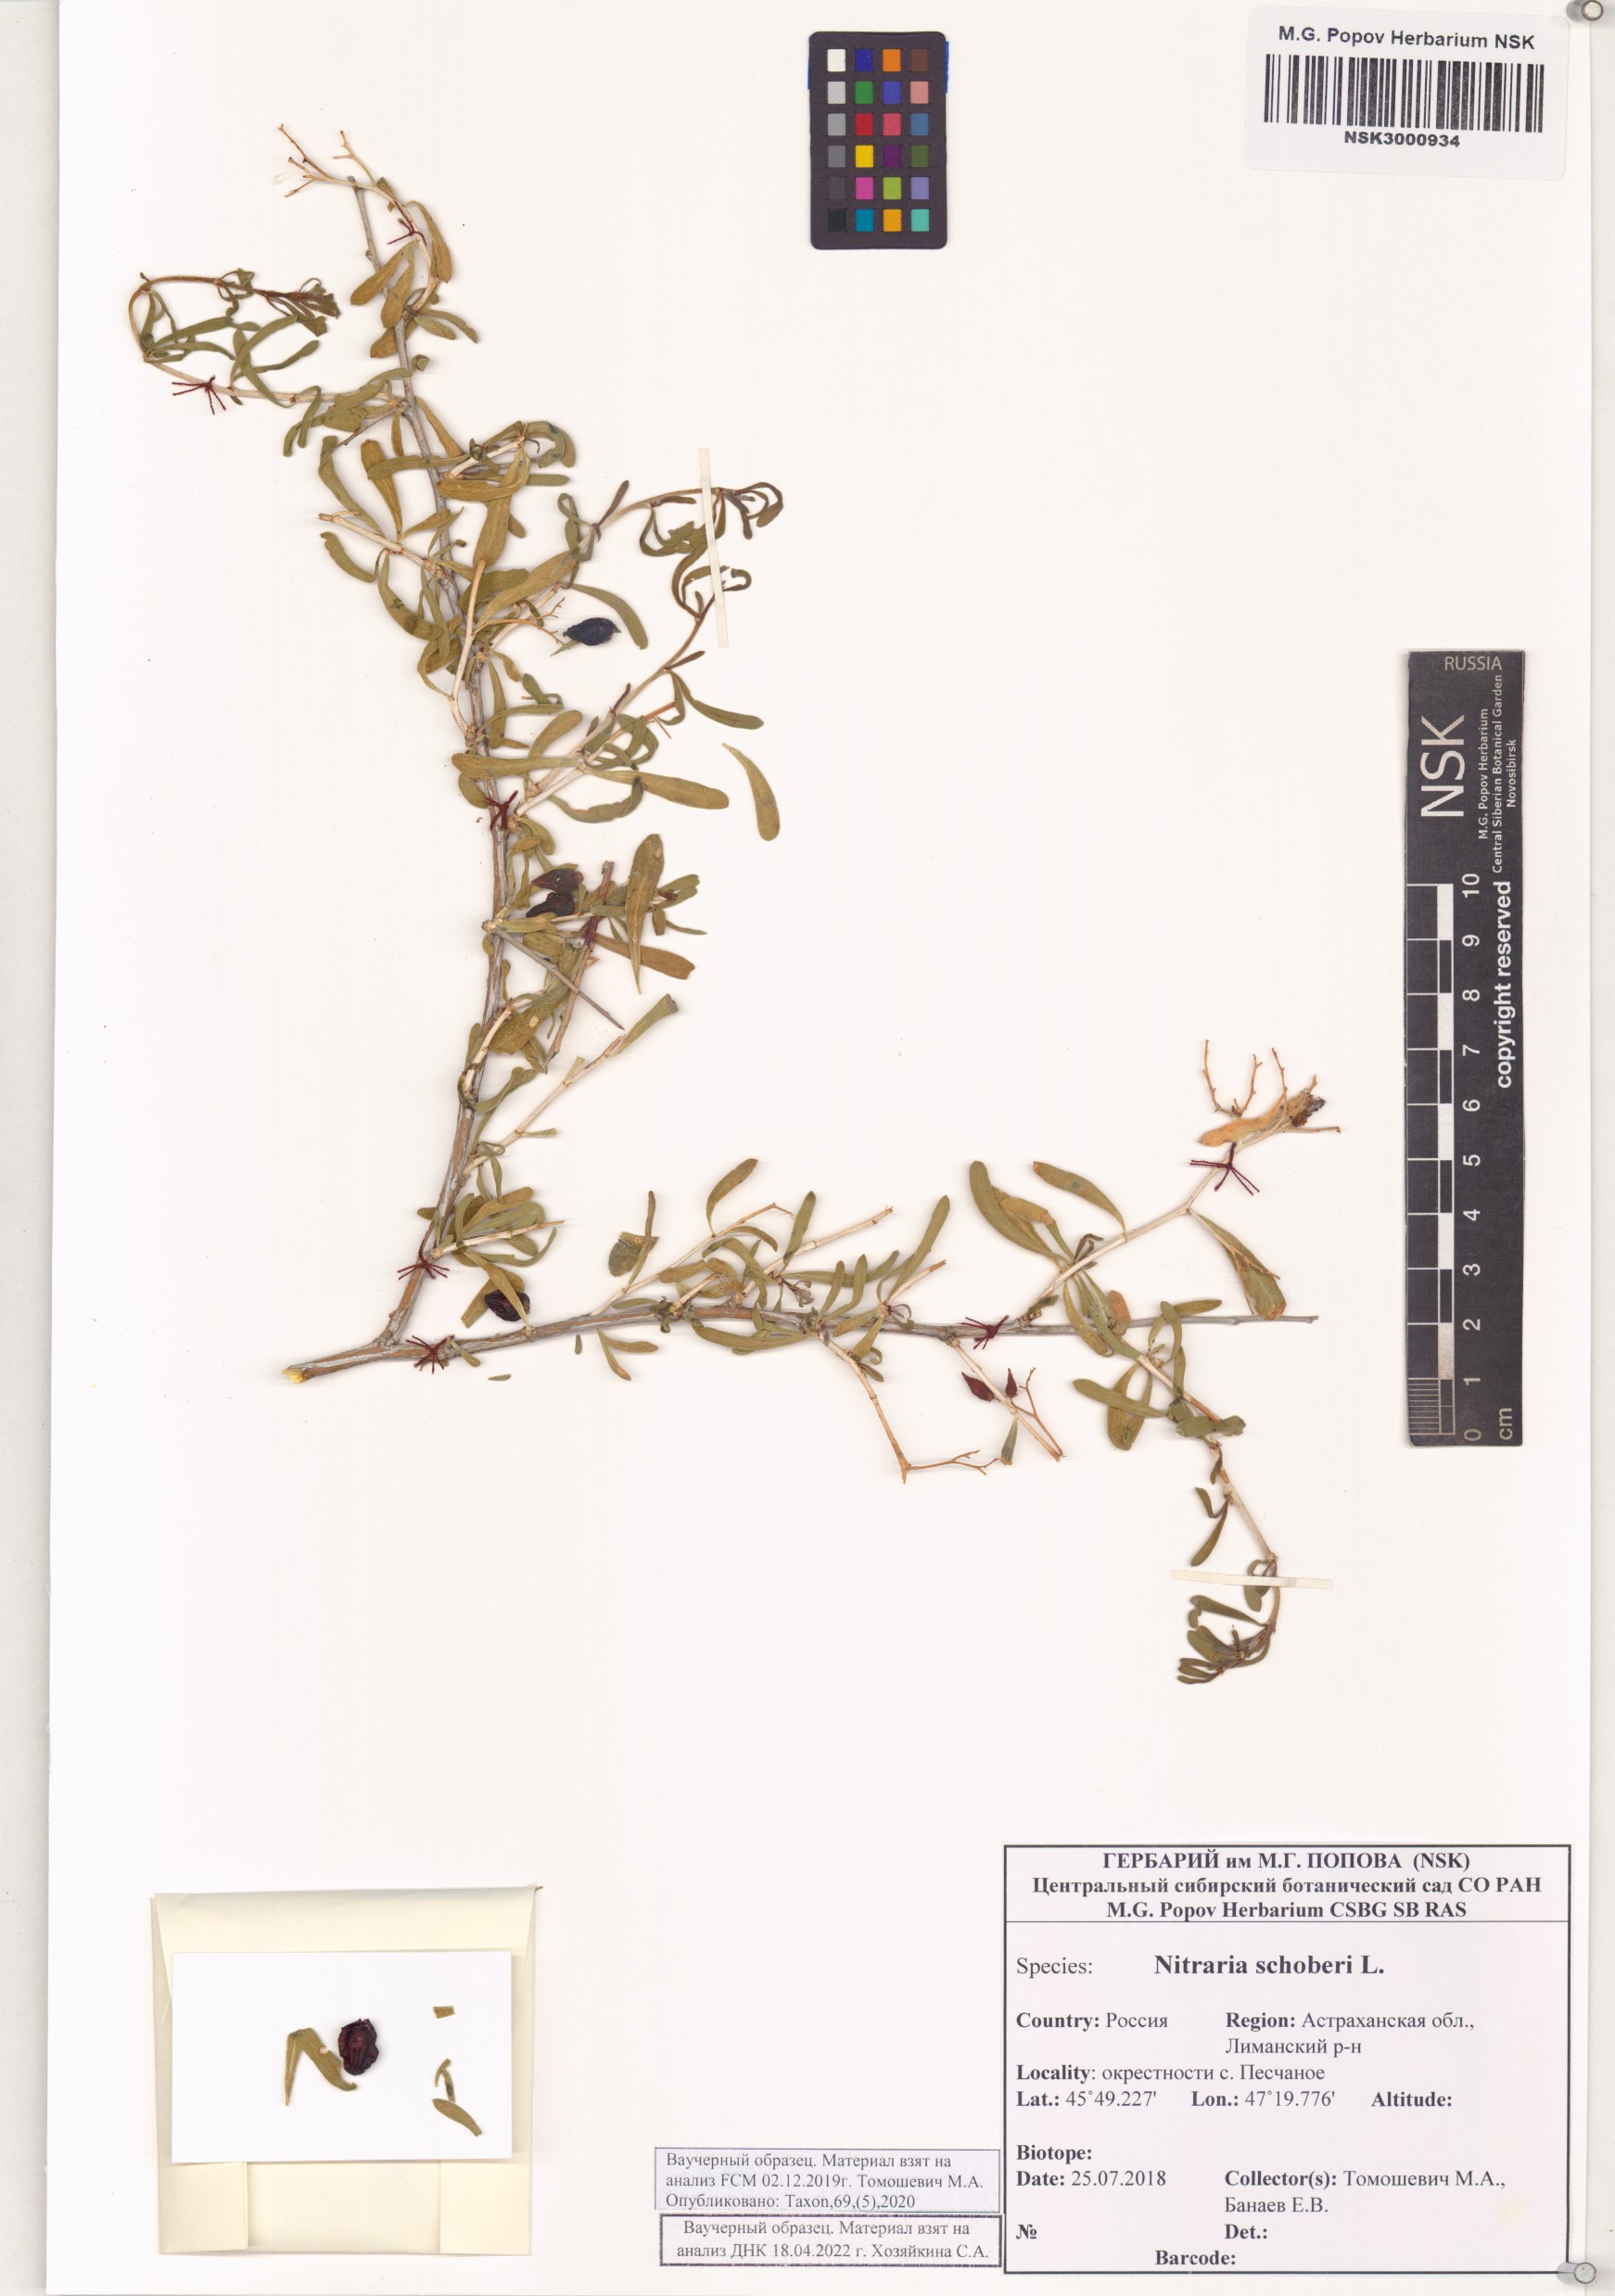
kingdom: Plantae
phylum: Tracheophyta
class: Magnoliopsida
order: Sapindales
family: Nitrariaceae
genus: Nitraria
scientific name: Nitraria schoberi
